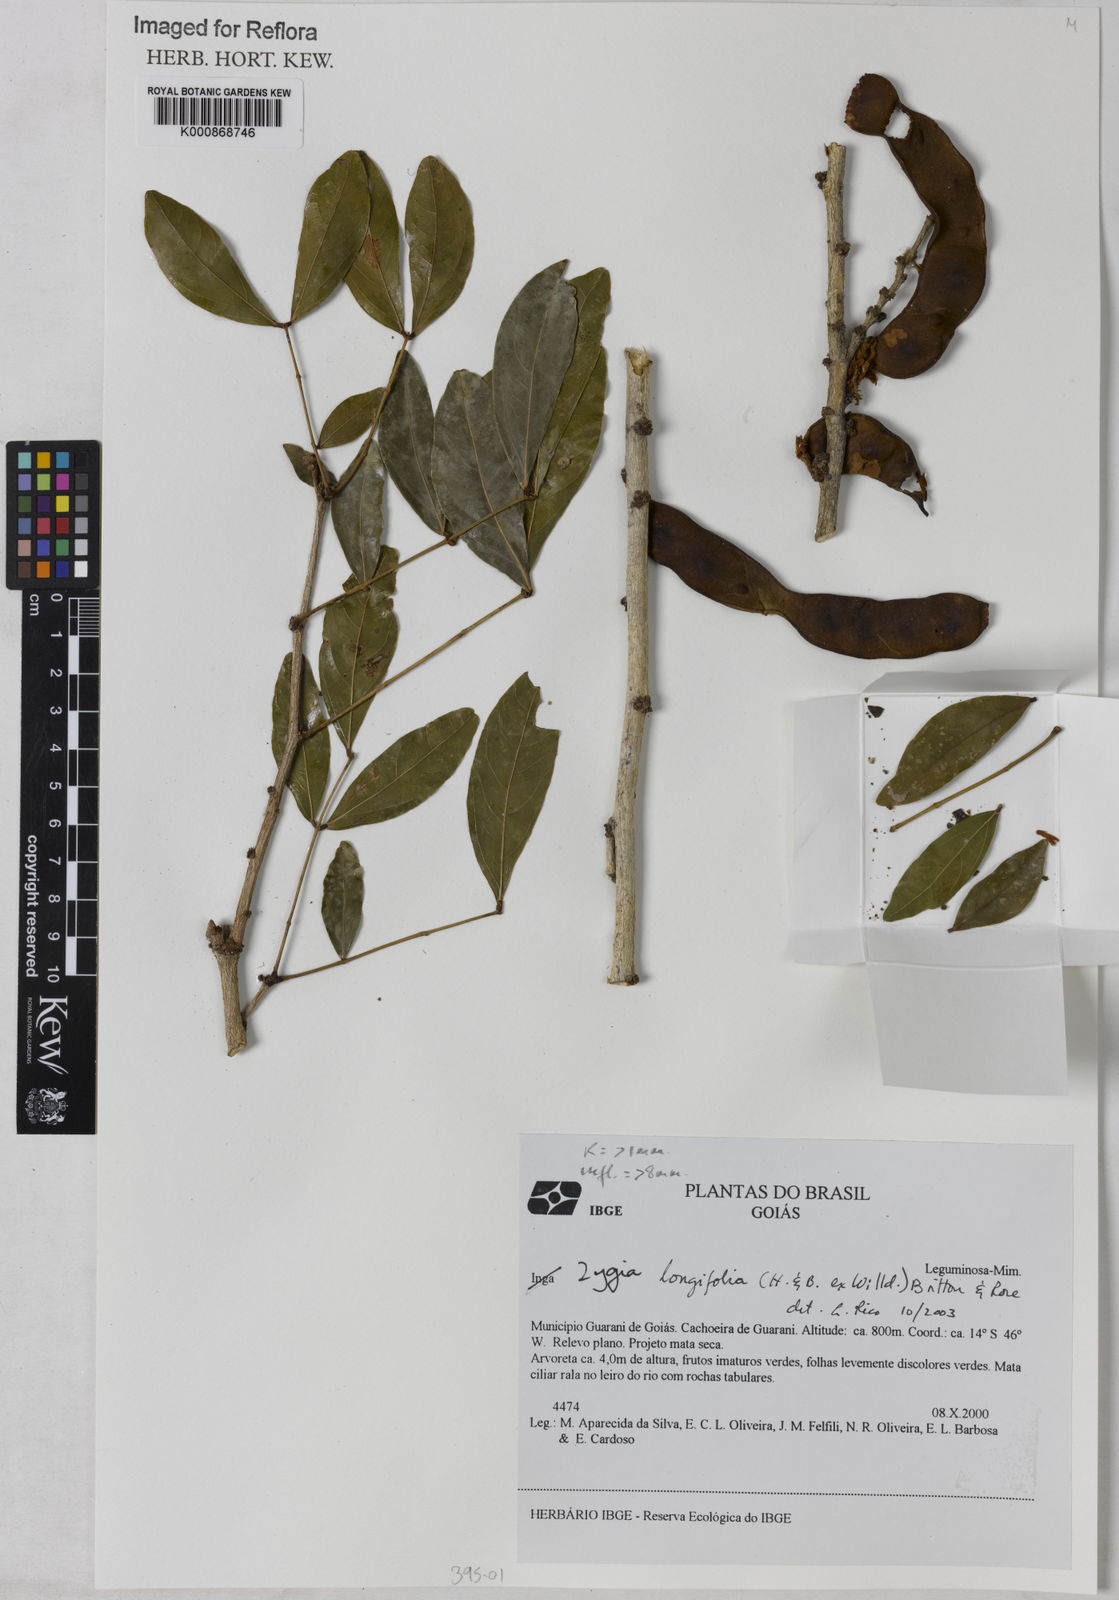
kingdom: Plantae
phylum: Tracheophyta
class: Magnoliopsida
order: Fabales
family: Fabaceae
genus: Zygia
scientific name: Zygia longifolia
